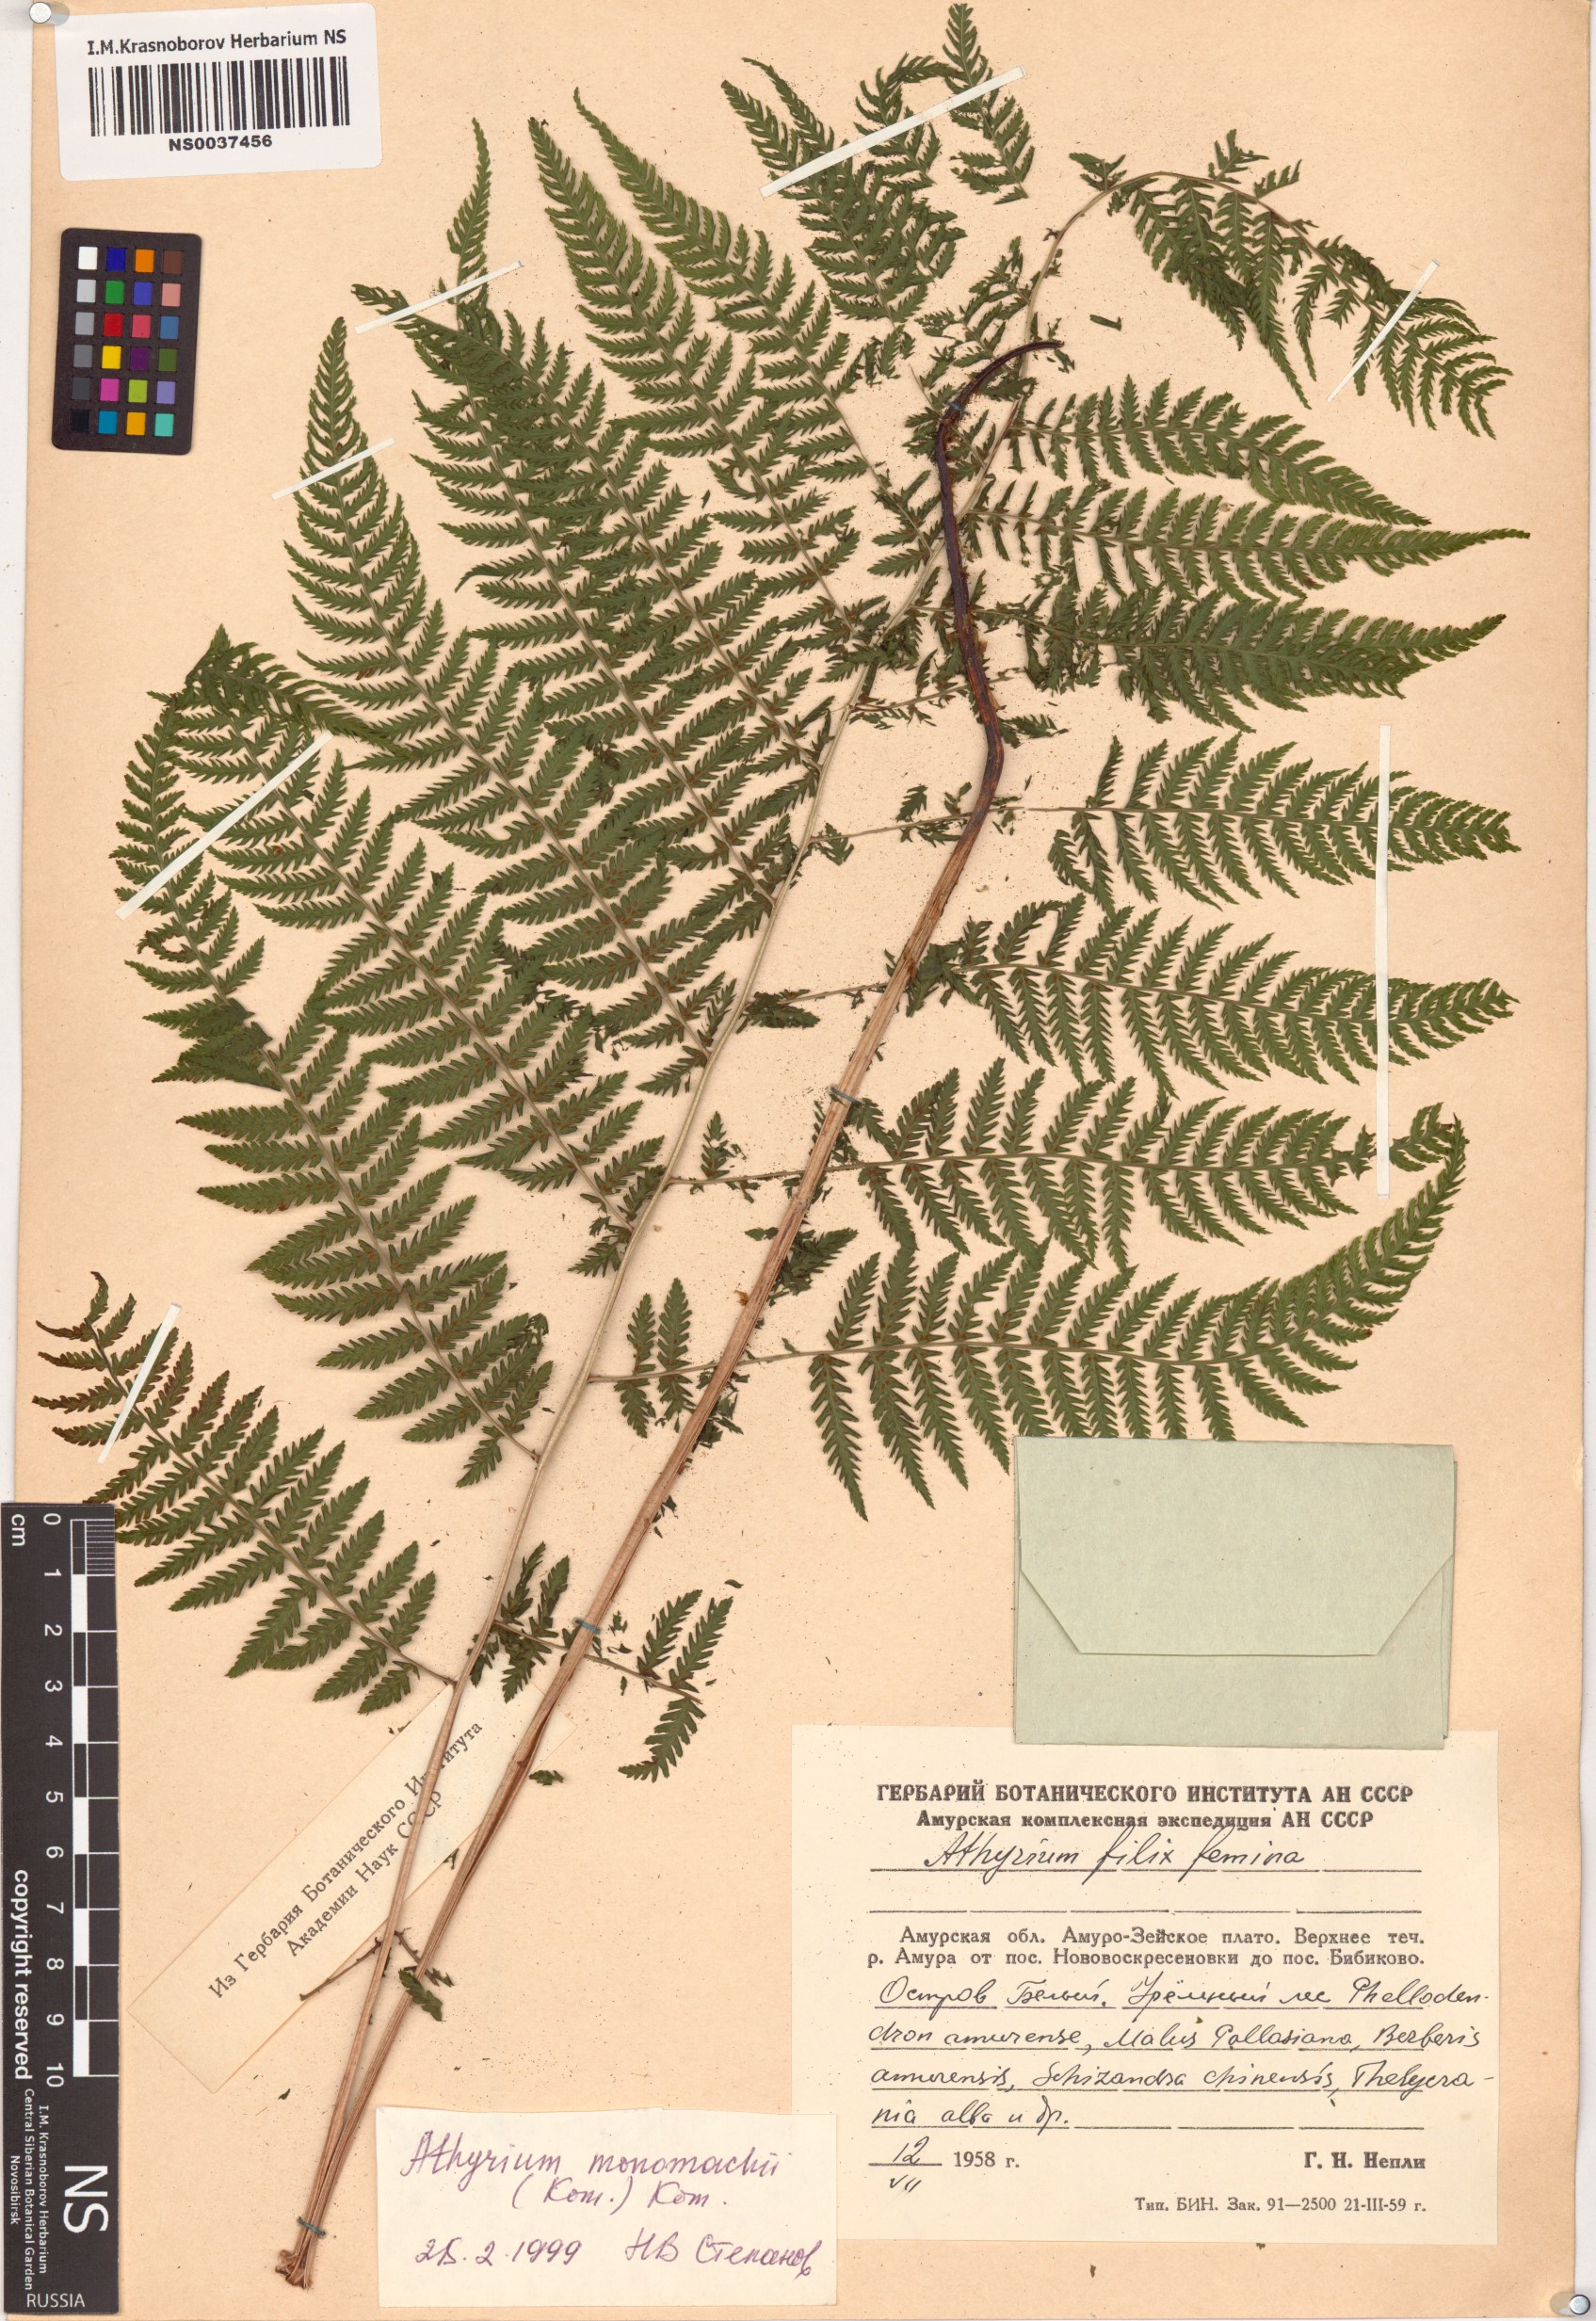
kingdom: Plantae
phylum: Tracheophyta
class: Polypodiopsida
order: Polypodiales
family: Athyriaceae
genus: Athyrium
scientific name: Athyrium monomachii
